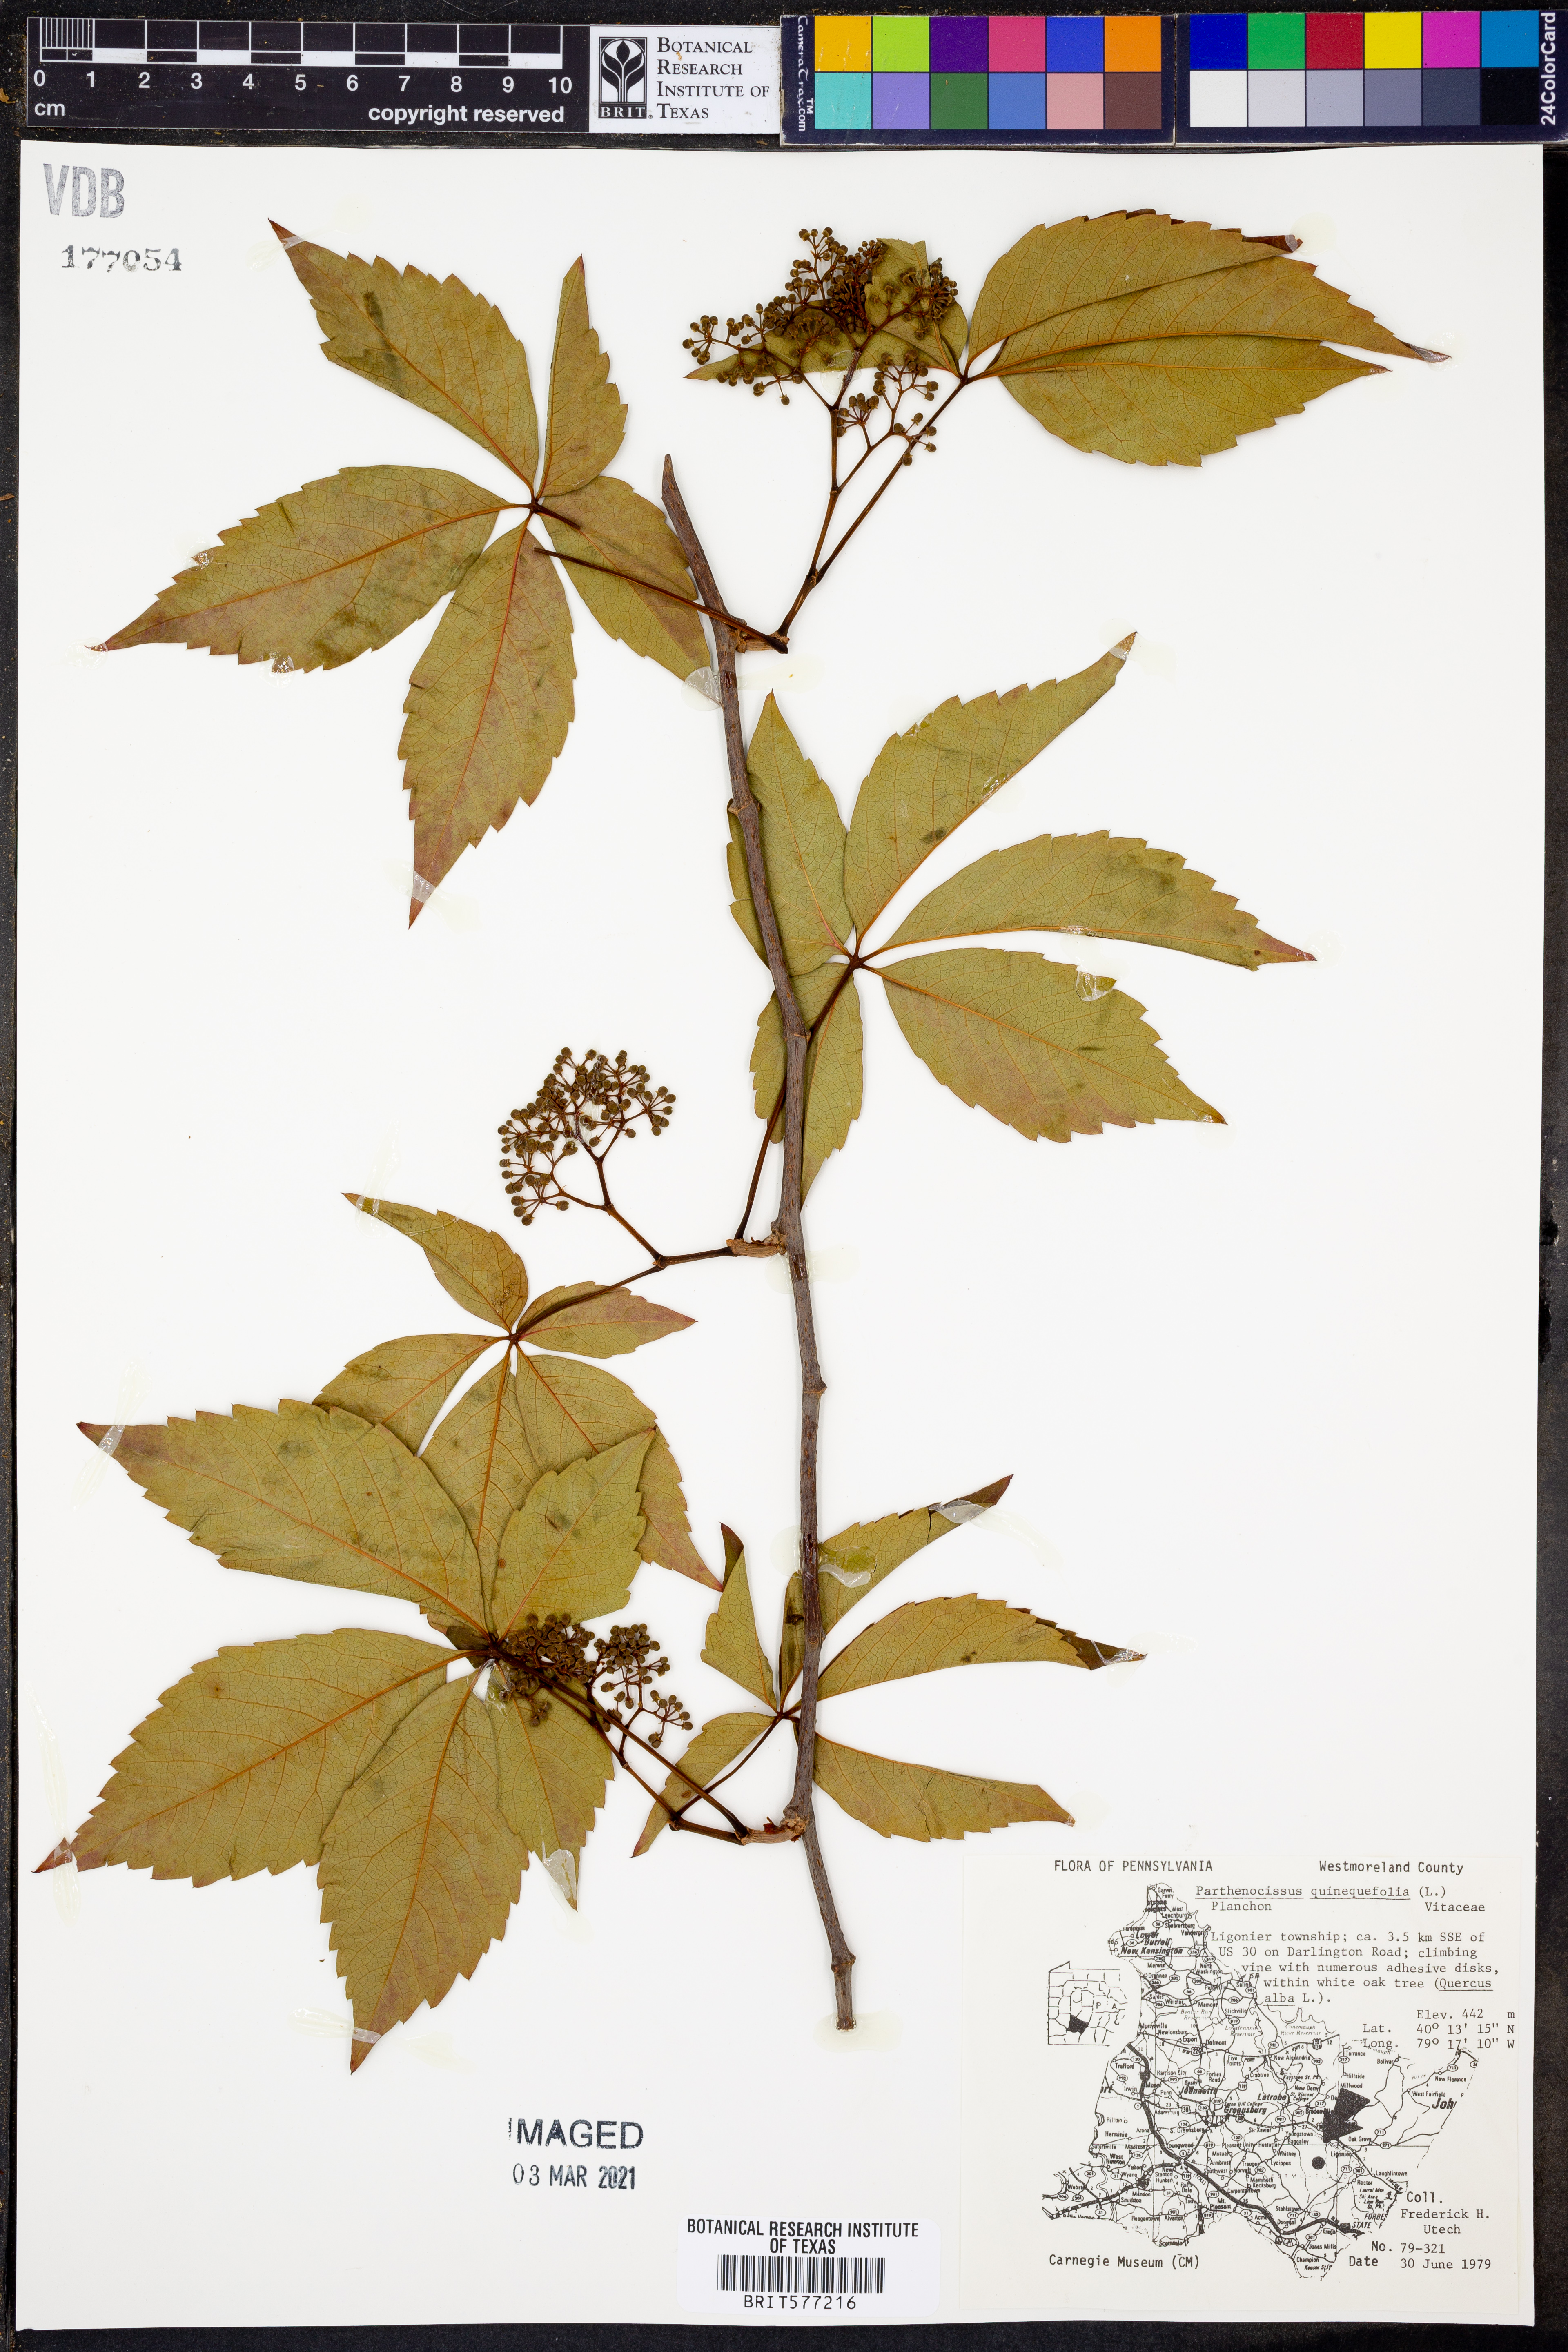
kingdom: Plantae
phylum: Tracheophyta
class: Magnoliopsida
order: Vitales
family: Vitaceae
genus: Parthenocissus
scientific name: Parthenocissus quinquefolia
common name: Virginia-creeper
